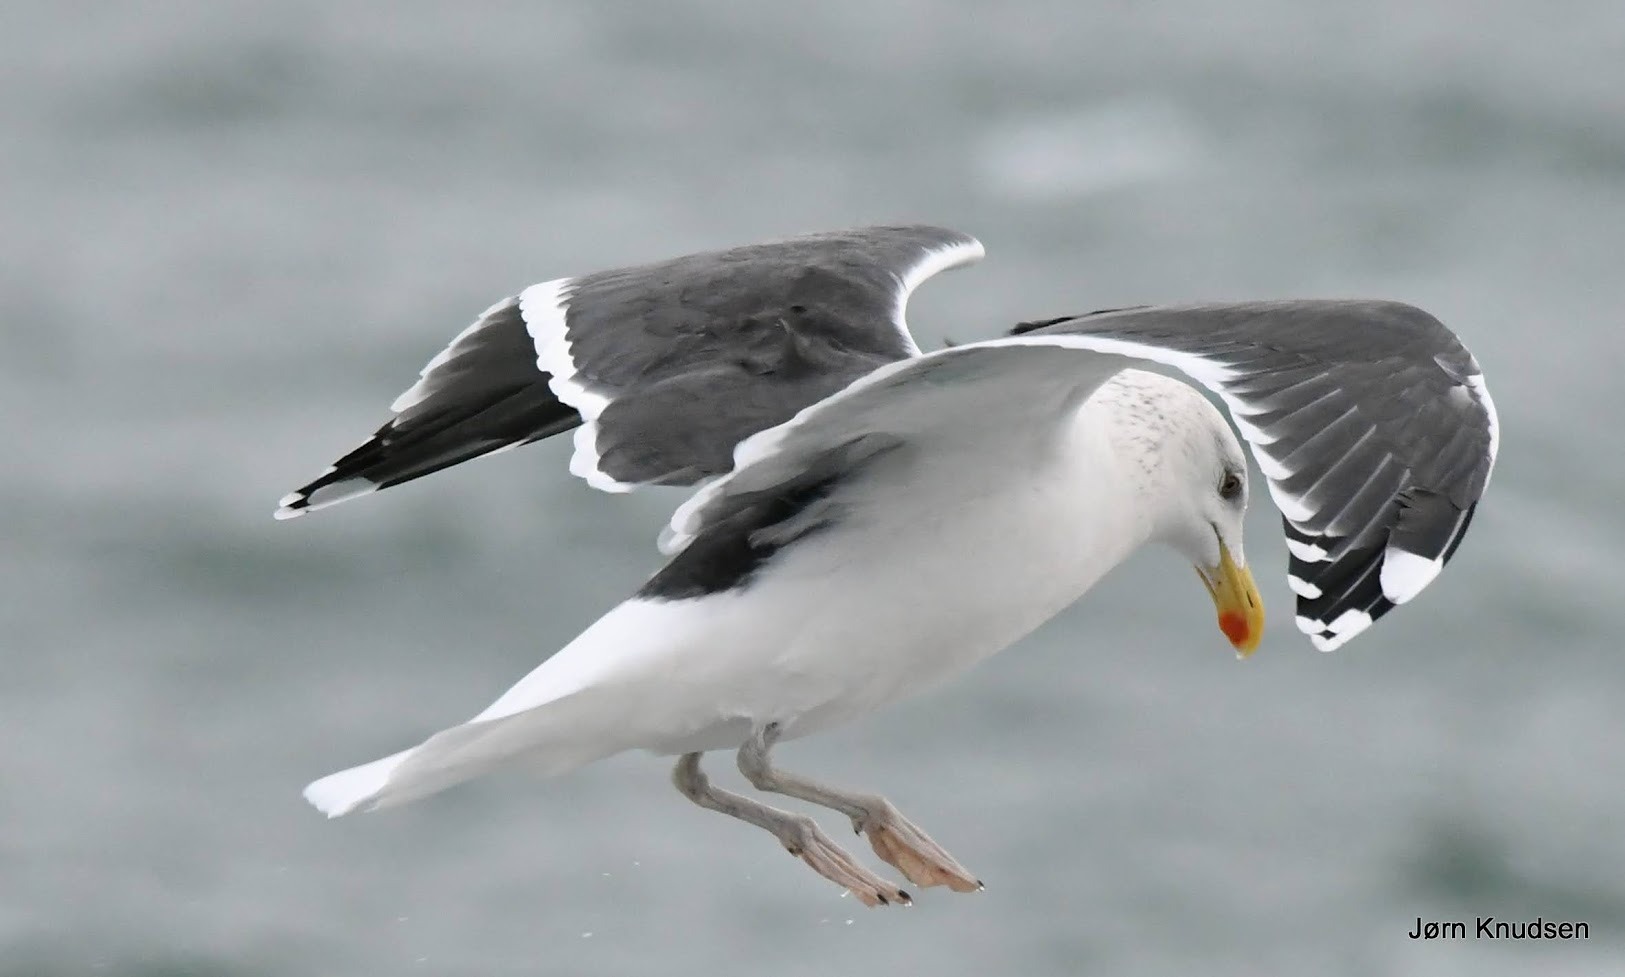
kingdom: Animalia
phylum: Chordata
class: Aves
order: Charadriiformes
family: Laridae
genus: Larus
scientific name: Larus marinus
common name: Svartbag
